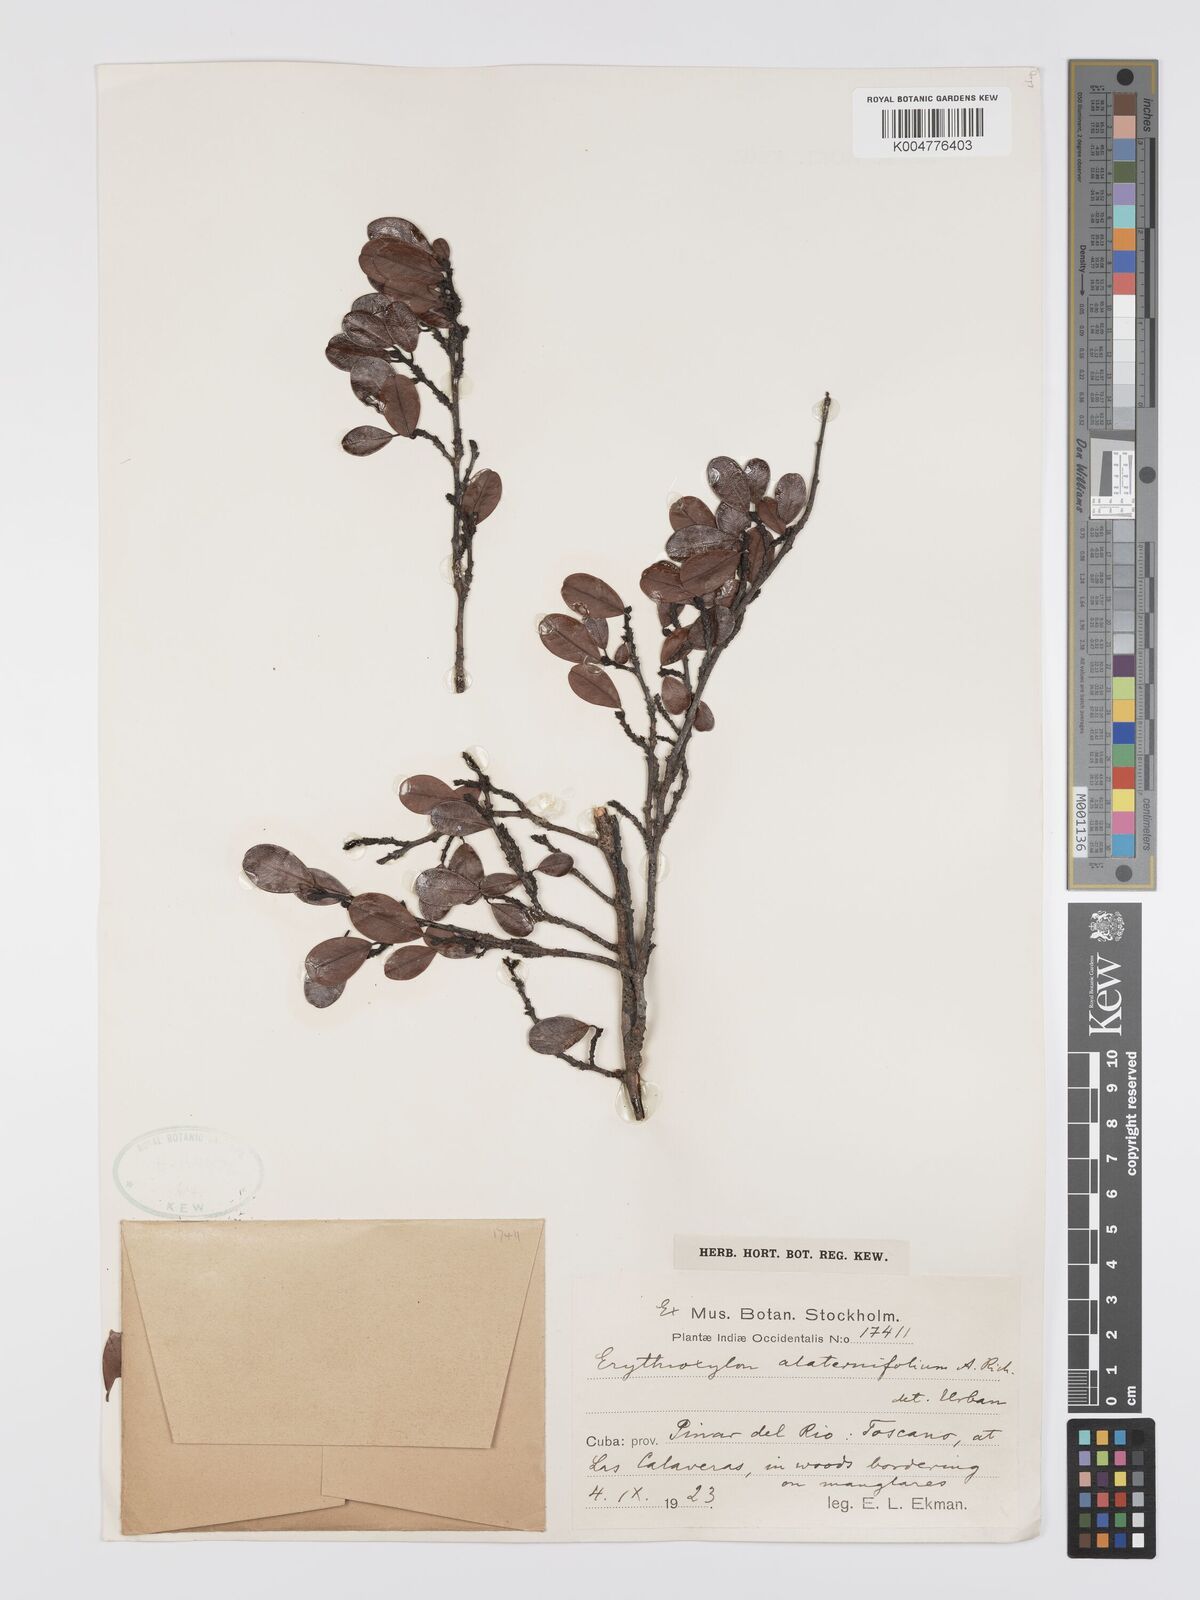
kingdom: Plantae
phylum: Tracheophyta
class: Magnoliopsida
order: Malpighiales
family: Erythroxylaceae
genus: Erythroxylum
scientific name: Erythroxylum alaternifolium
